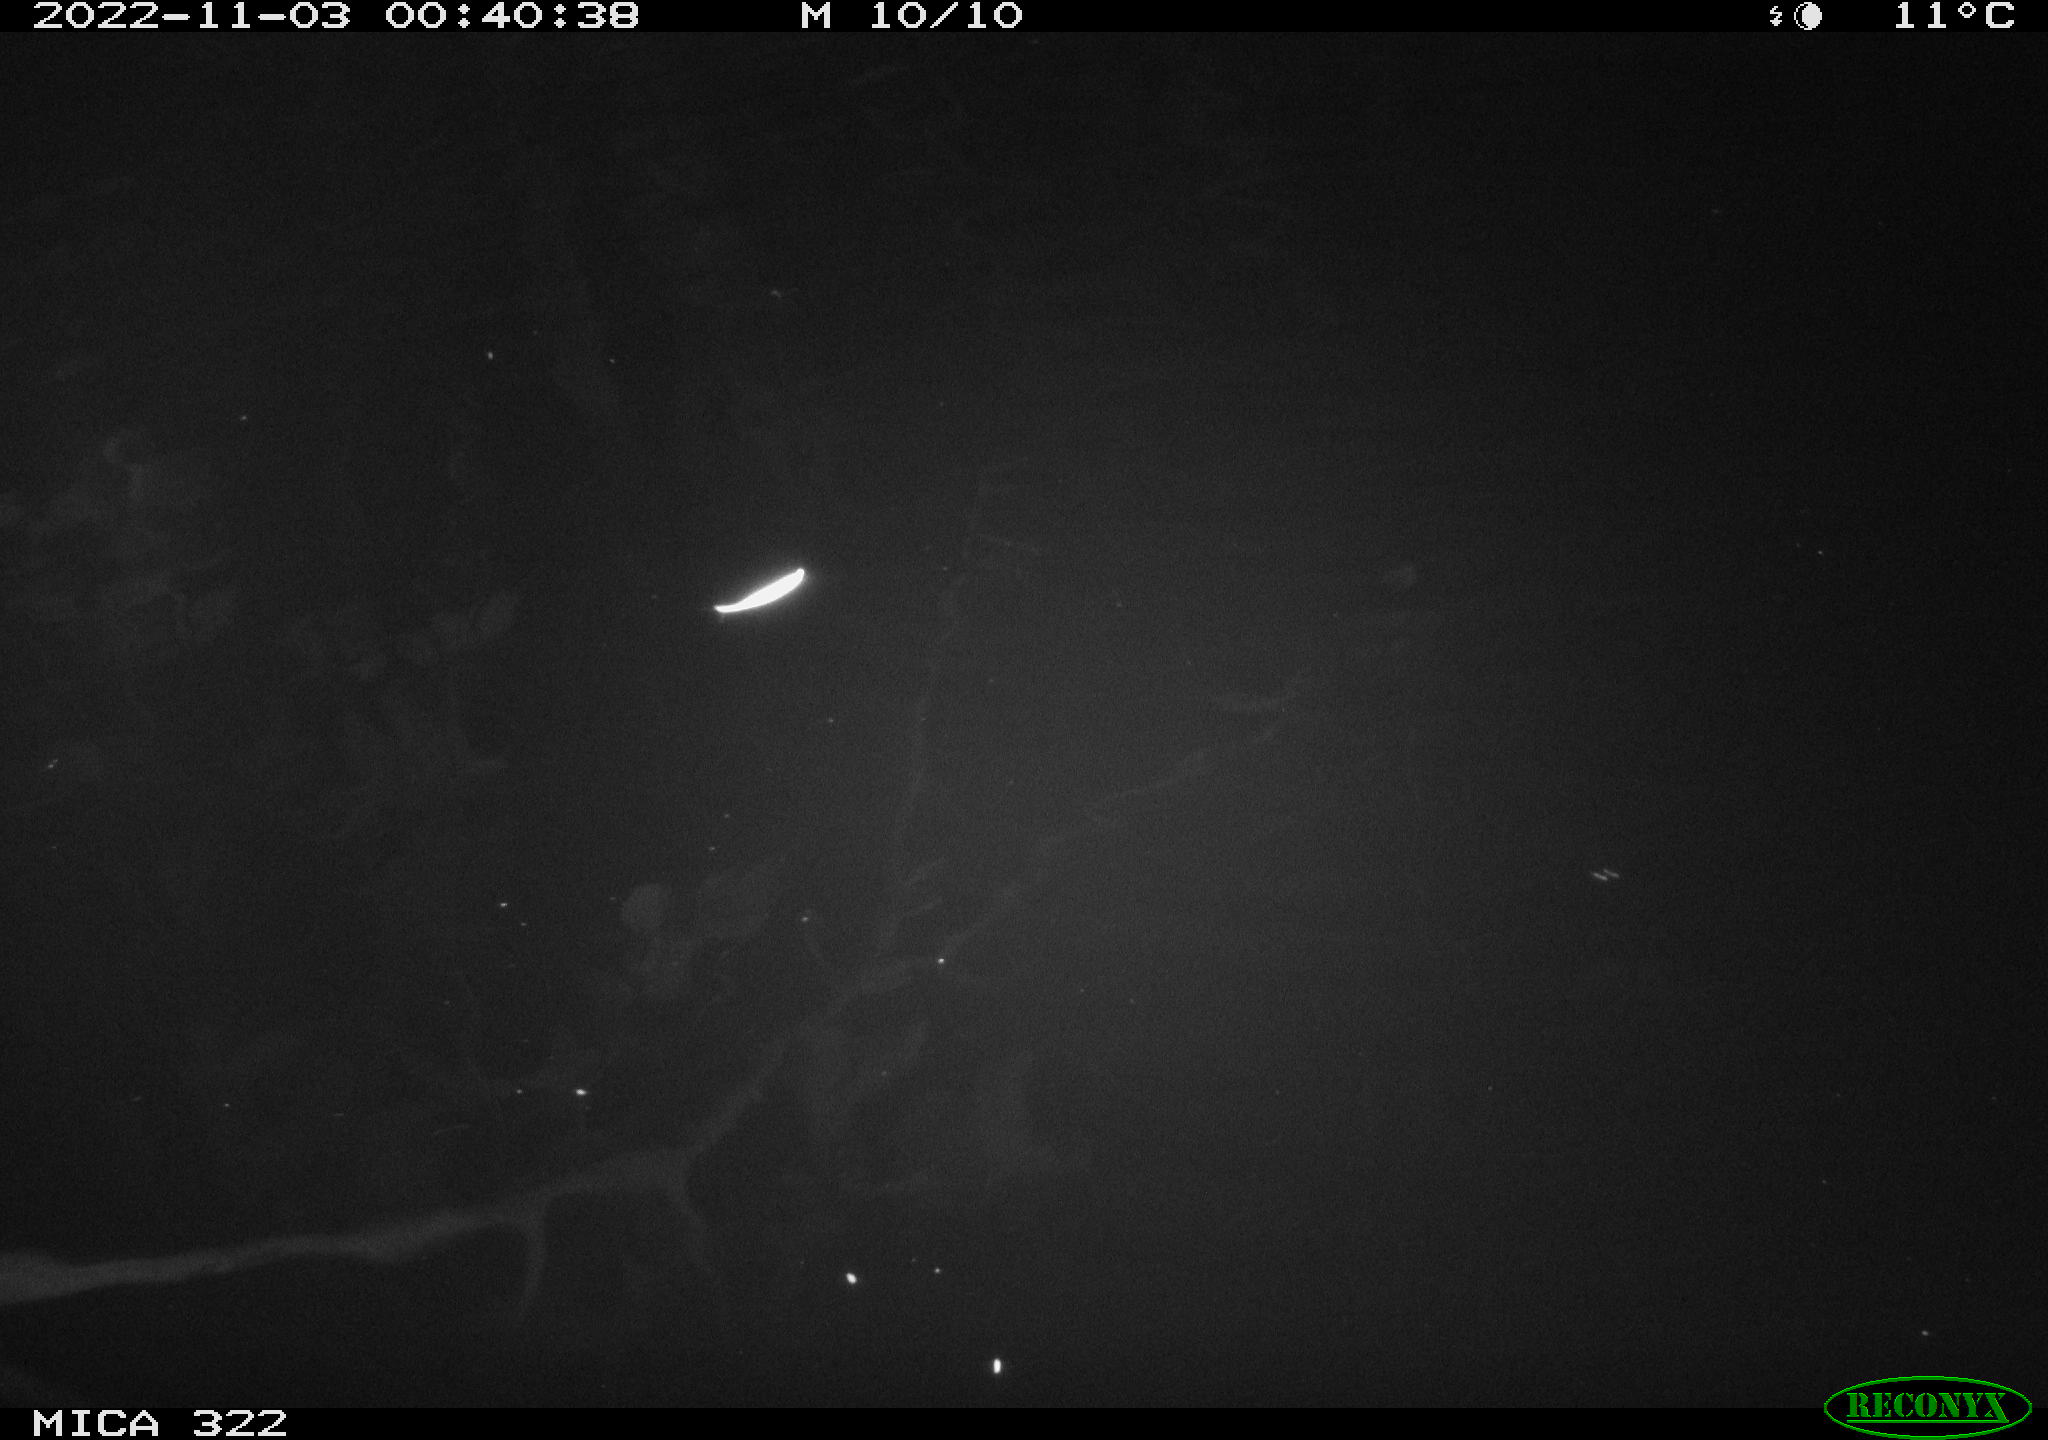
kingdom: Animalia
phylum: Chordata
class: Mammalia
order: Rodentia
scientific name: Rodentia
